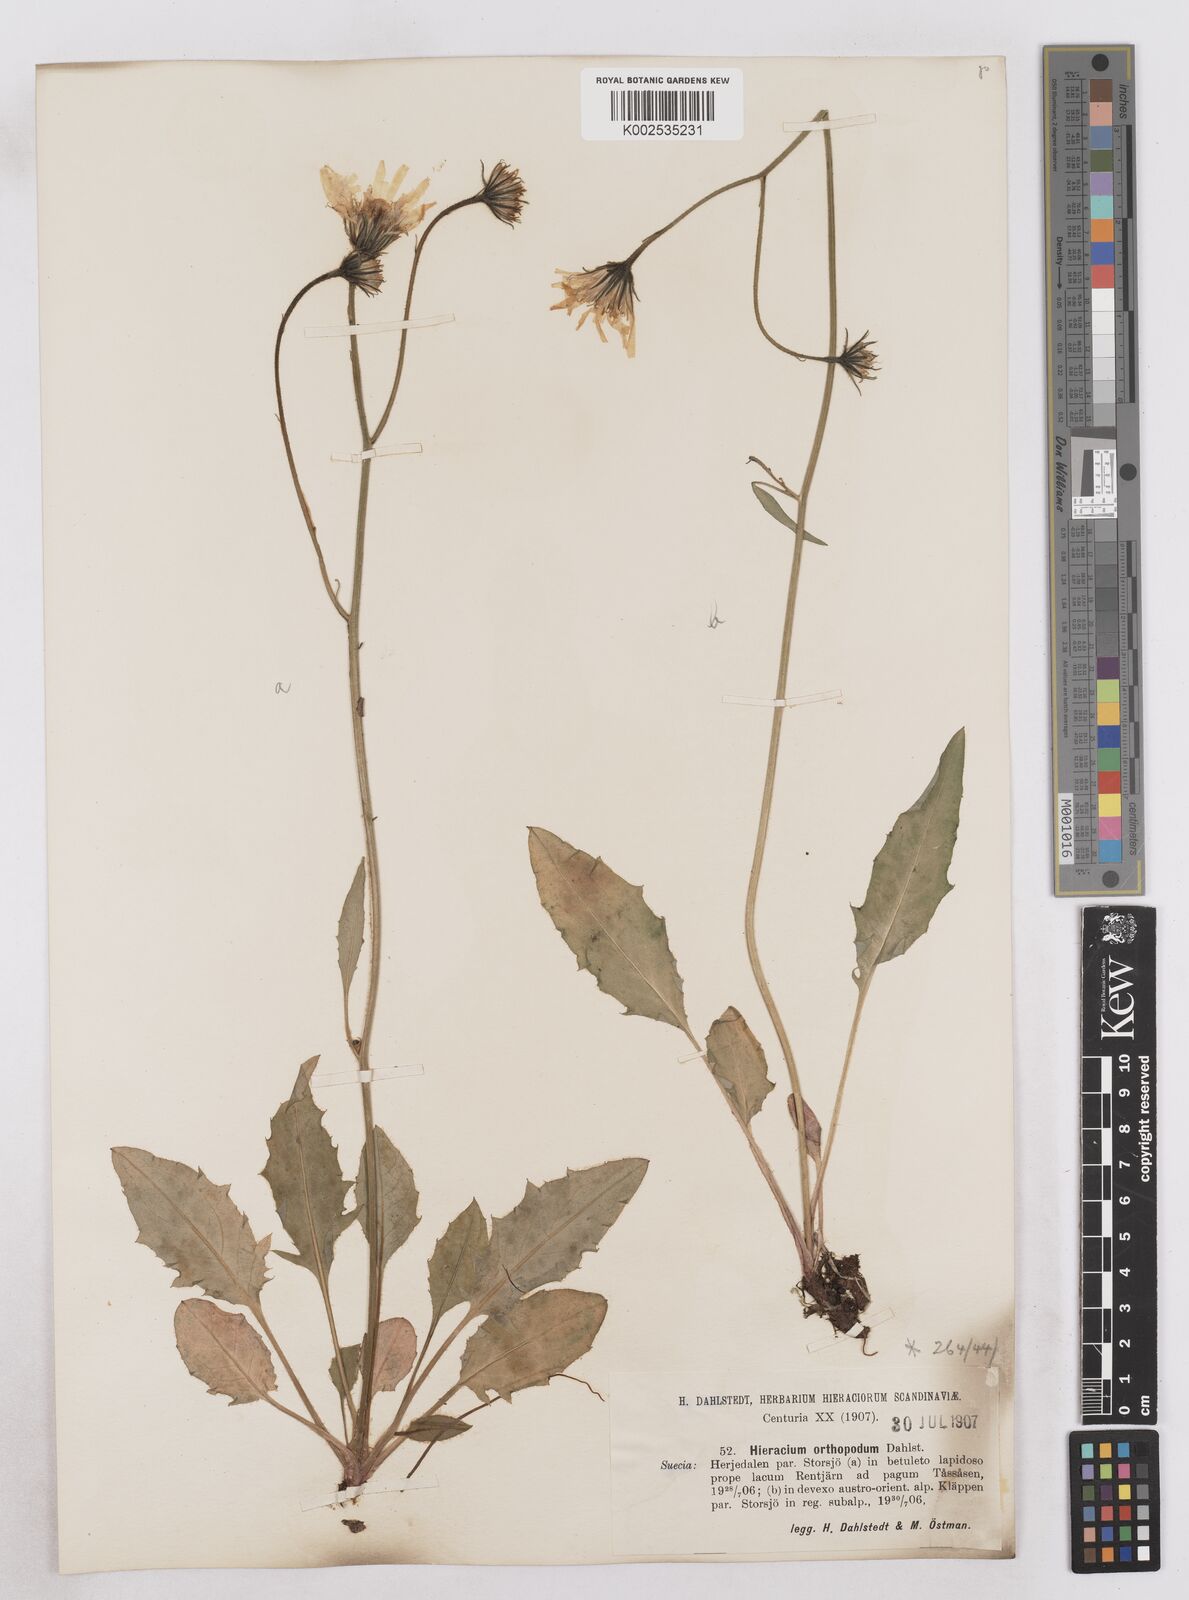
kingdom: Plantae
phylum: Tracheophyta
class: Magnoliopsida
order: Asterales
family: Asteraceae
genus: Hieracium
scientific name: Hieracium orthopodum
